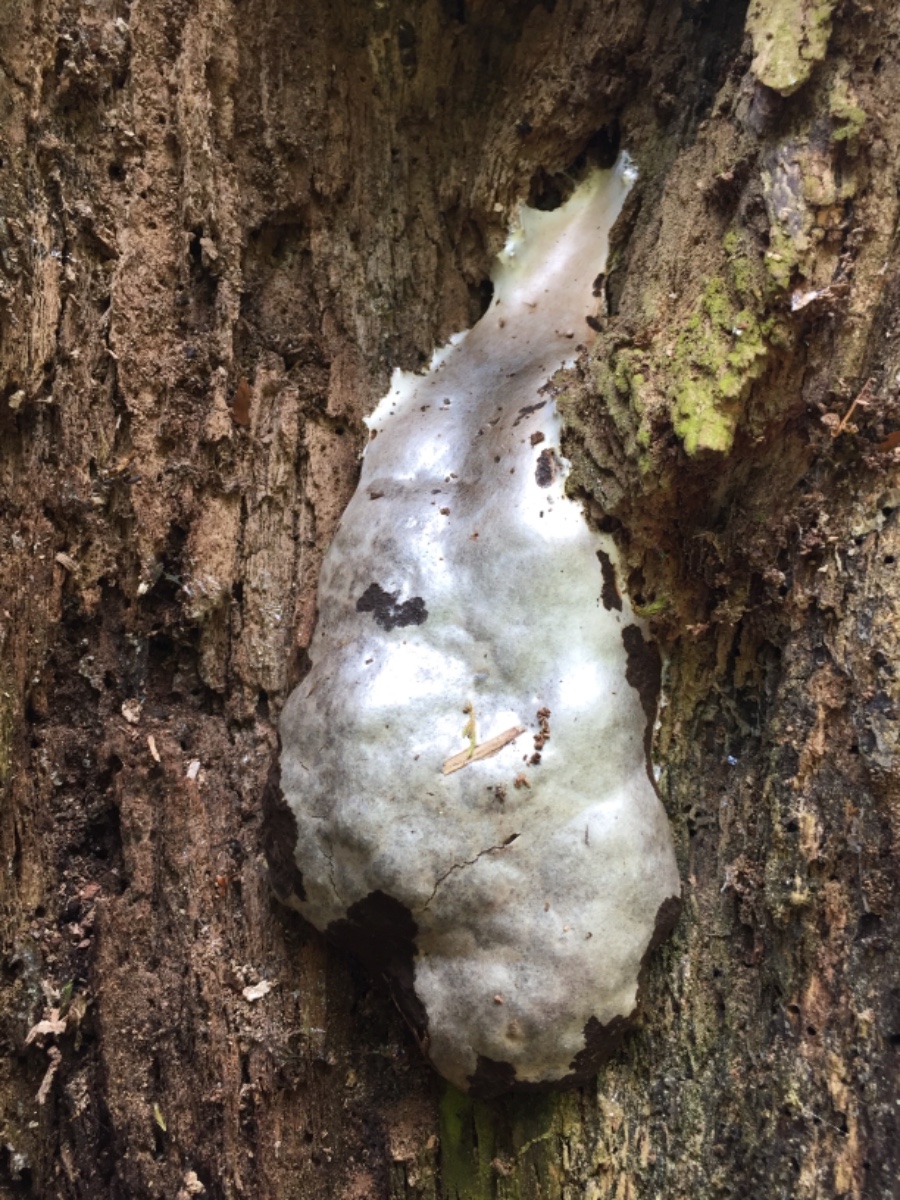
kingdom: Protozoa
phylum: Mycetozoa
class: Myxomycetes
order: Cribrariales
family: Tubiferaceae
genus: Reticularia
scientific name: Reticularia
